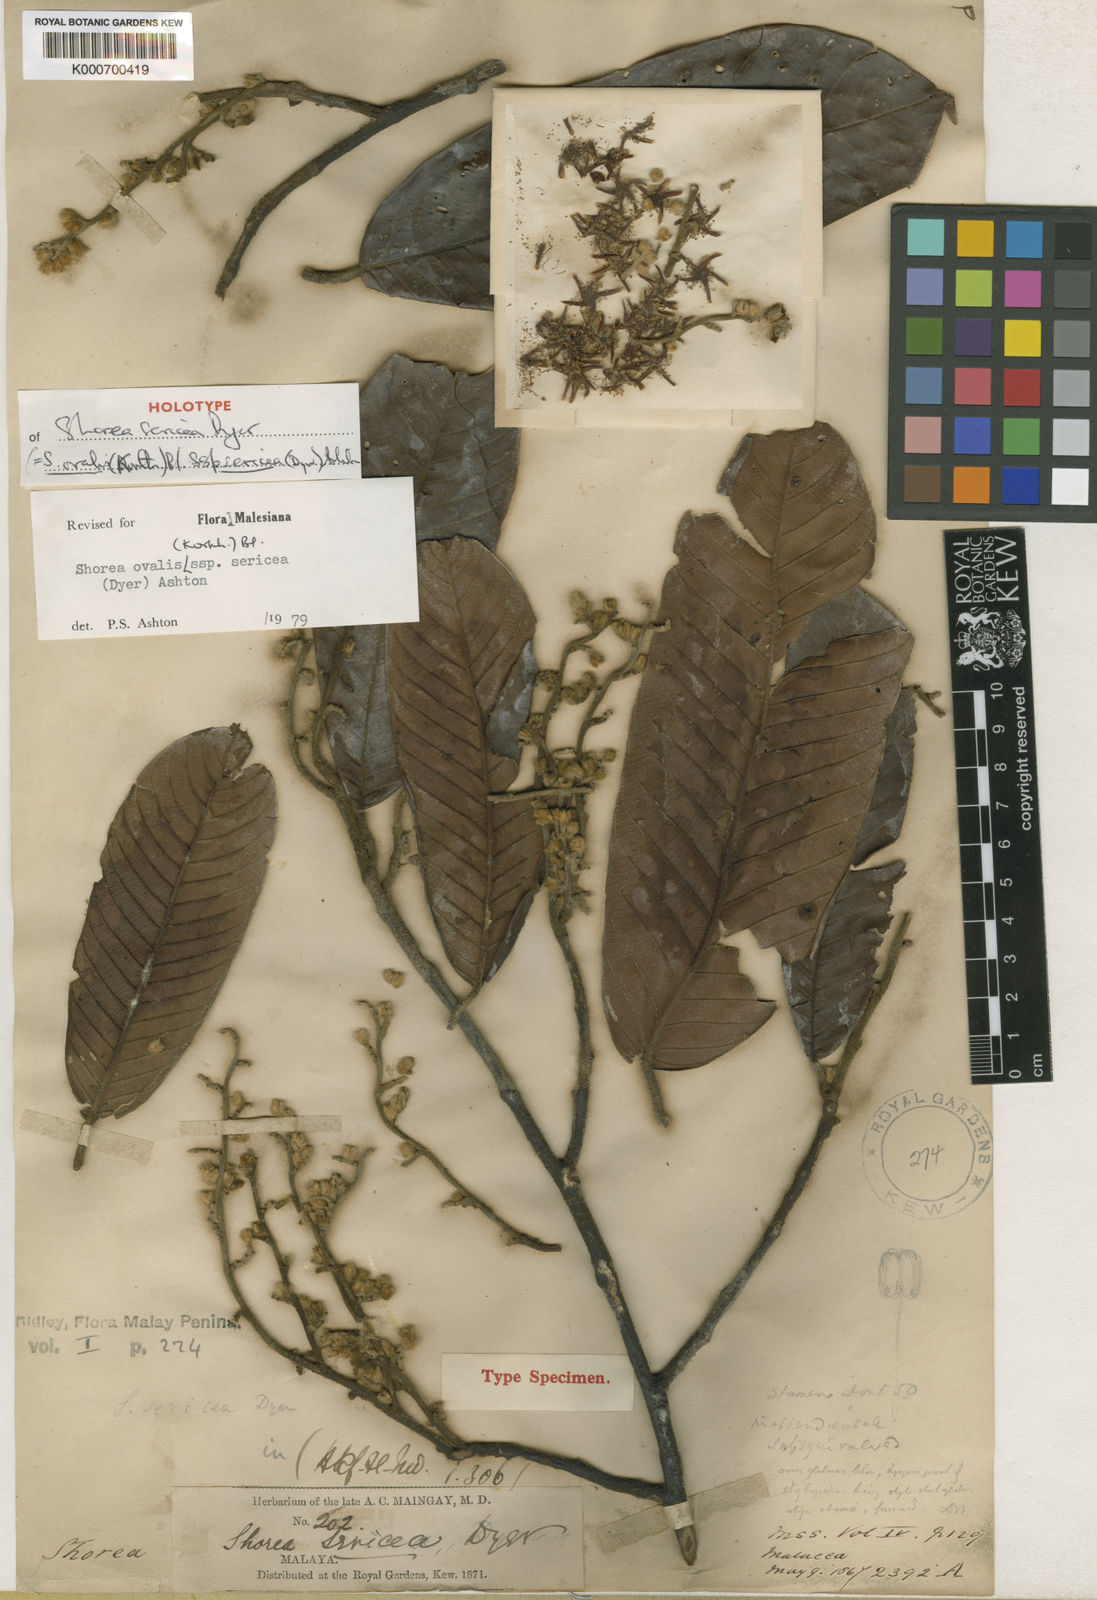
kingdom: Plantae
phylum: Tracheophyta
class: Magnoliopsida
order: Malvales
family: Dipterocarpaceae
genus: Shorea
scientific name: Shorea ovalis
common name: Light red meranti
